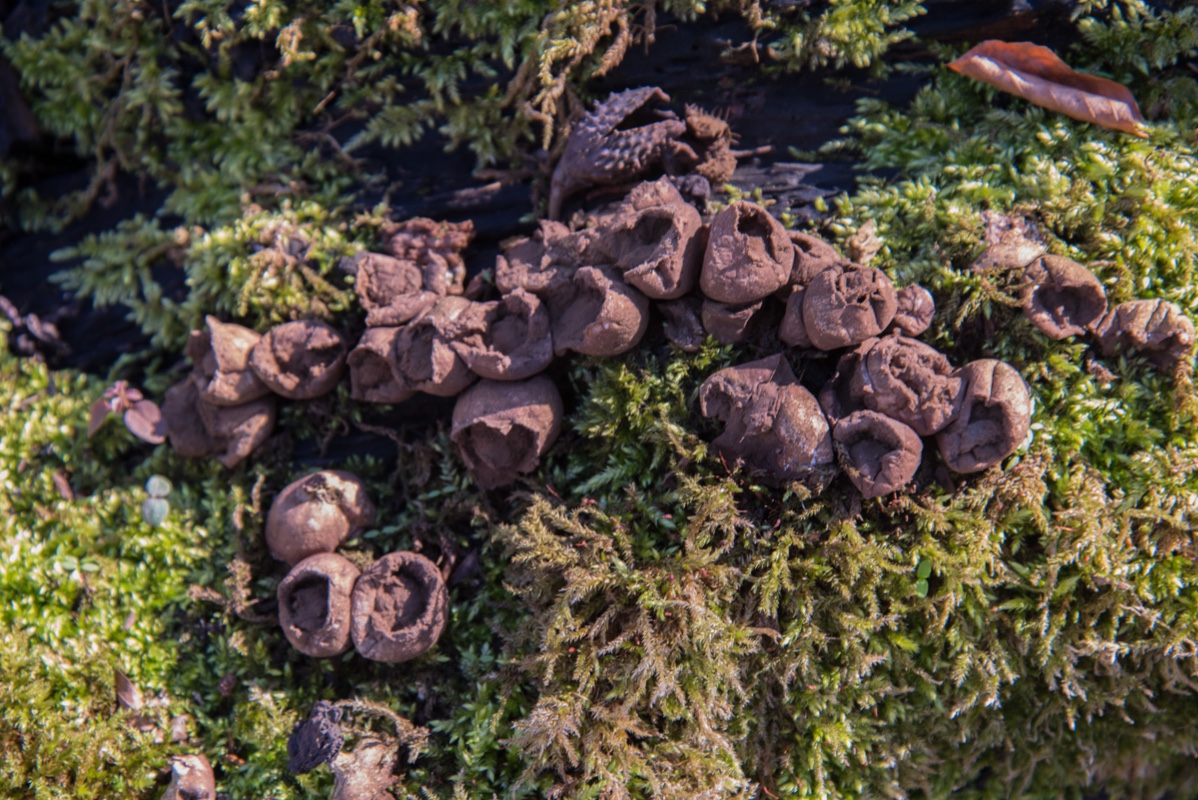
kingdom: Fungi
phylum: Basidiomycota
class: Agaricomycetes
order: Agaricales
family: Lycoperdaceae
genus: Apioperdon
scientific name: Apioperdon pyriforme
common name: pære-støvbold
